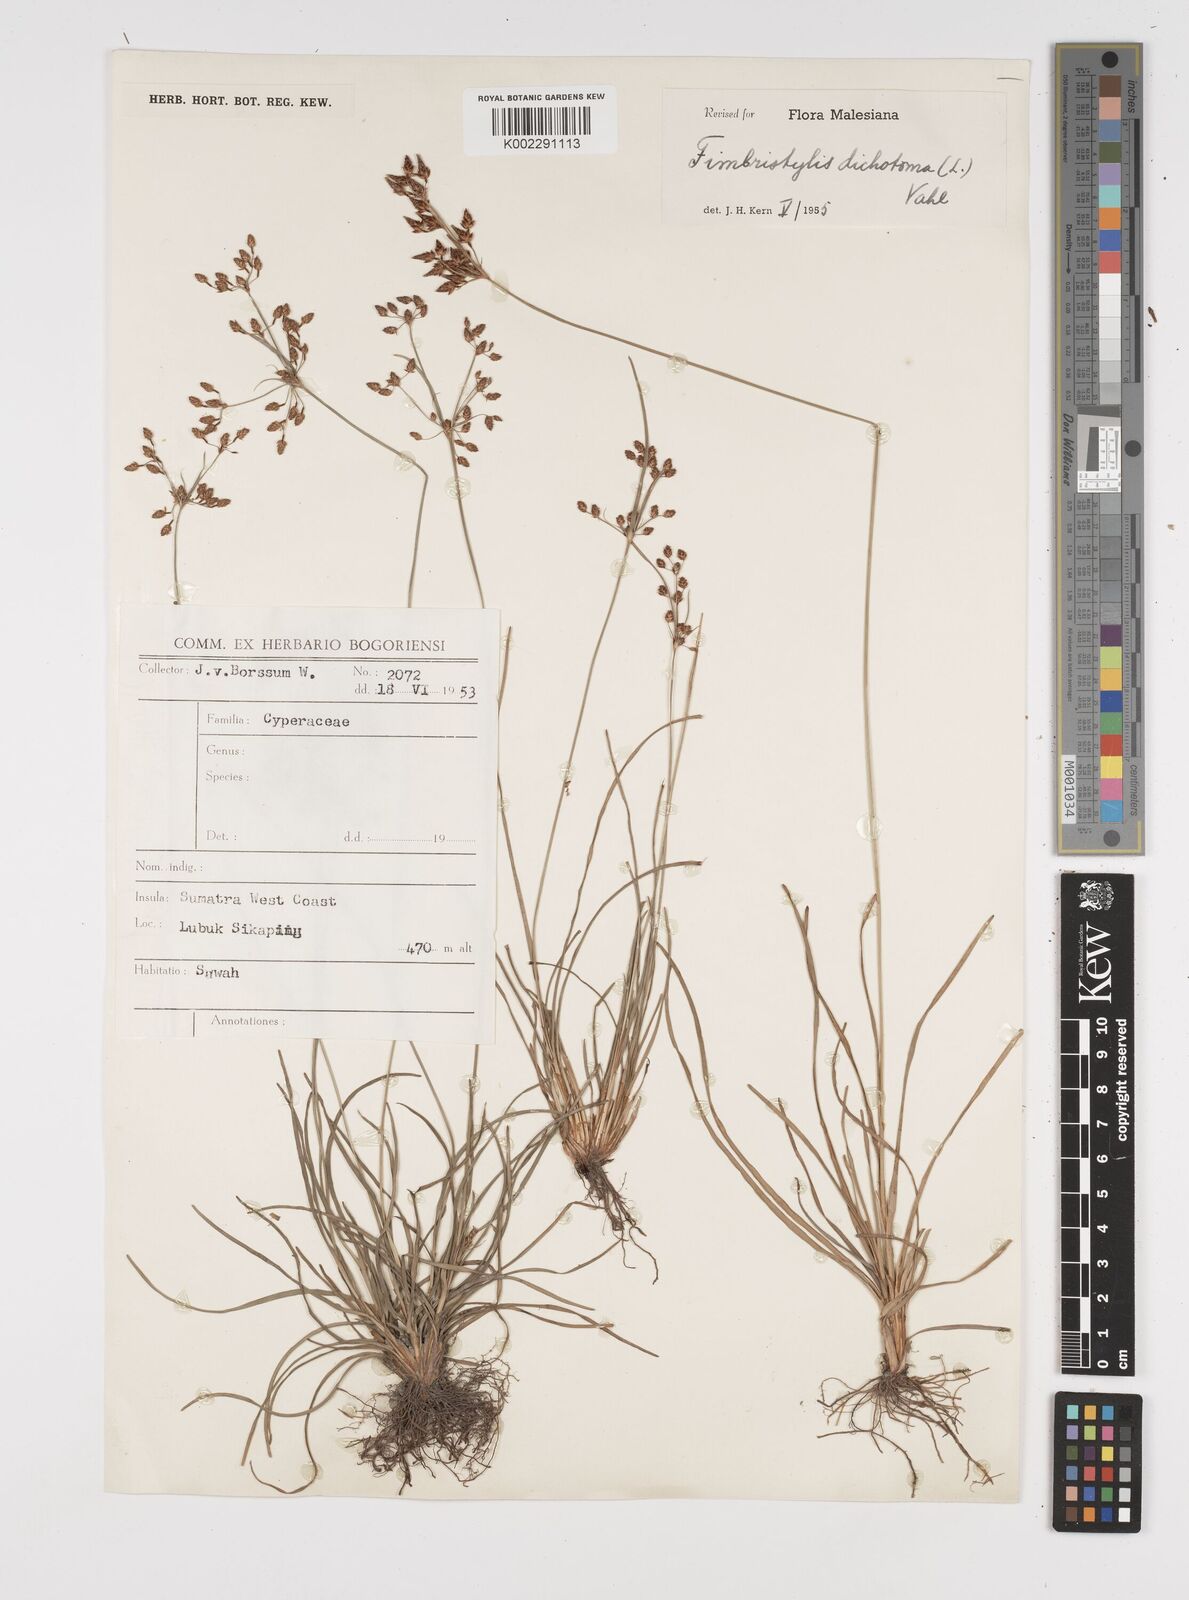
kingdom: Plantae
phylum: Tracheophyta
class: Liliopsida
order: Poales
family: Cyperaceae
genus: Fimbristylis
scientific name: Fimbristylis dichotoma
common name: Forked fimbry
